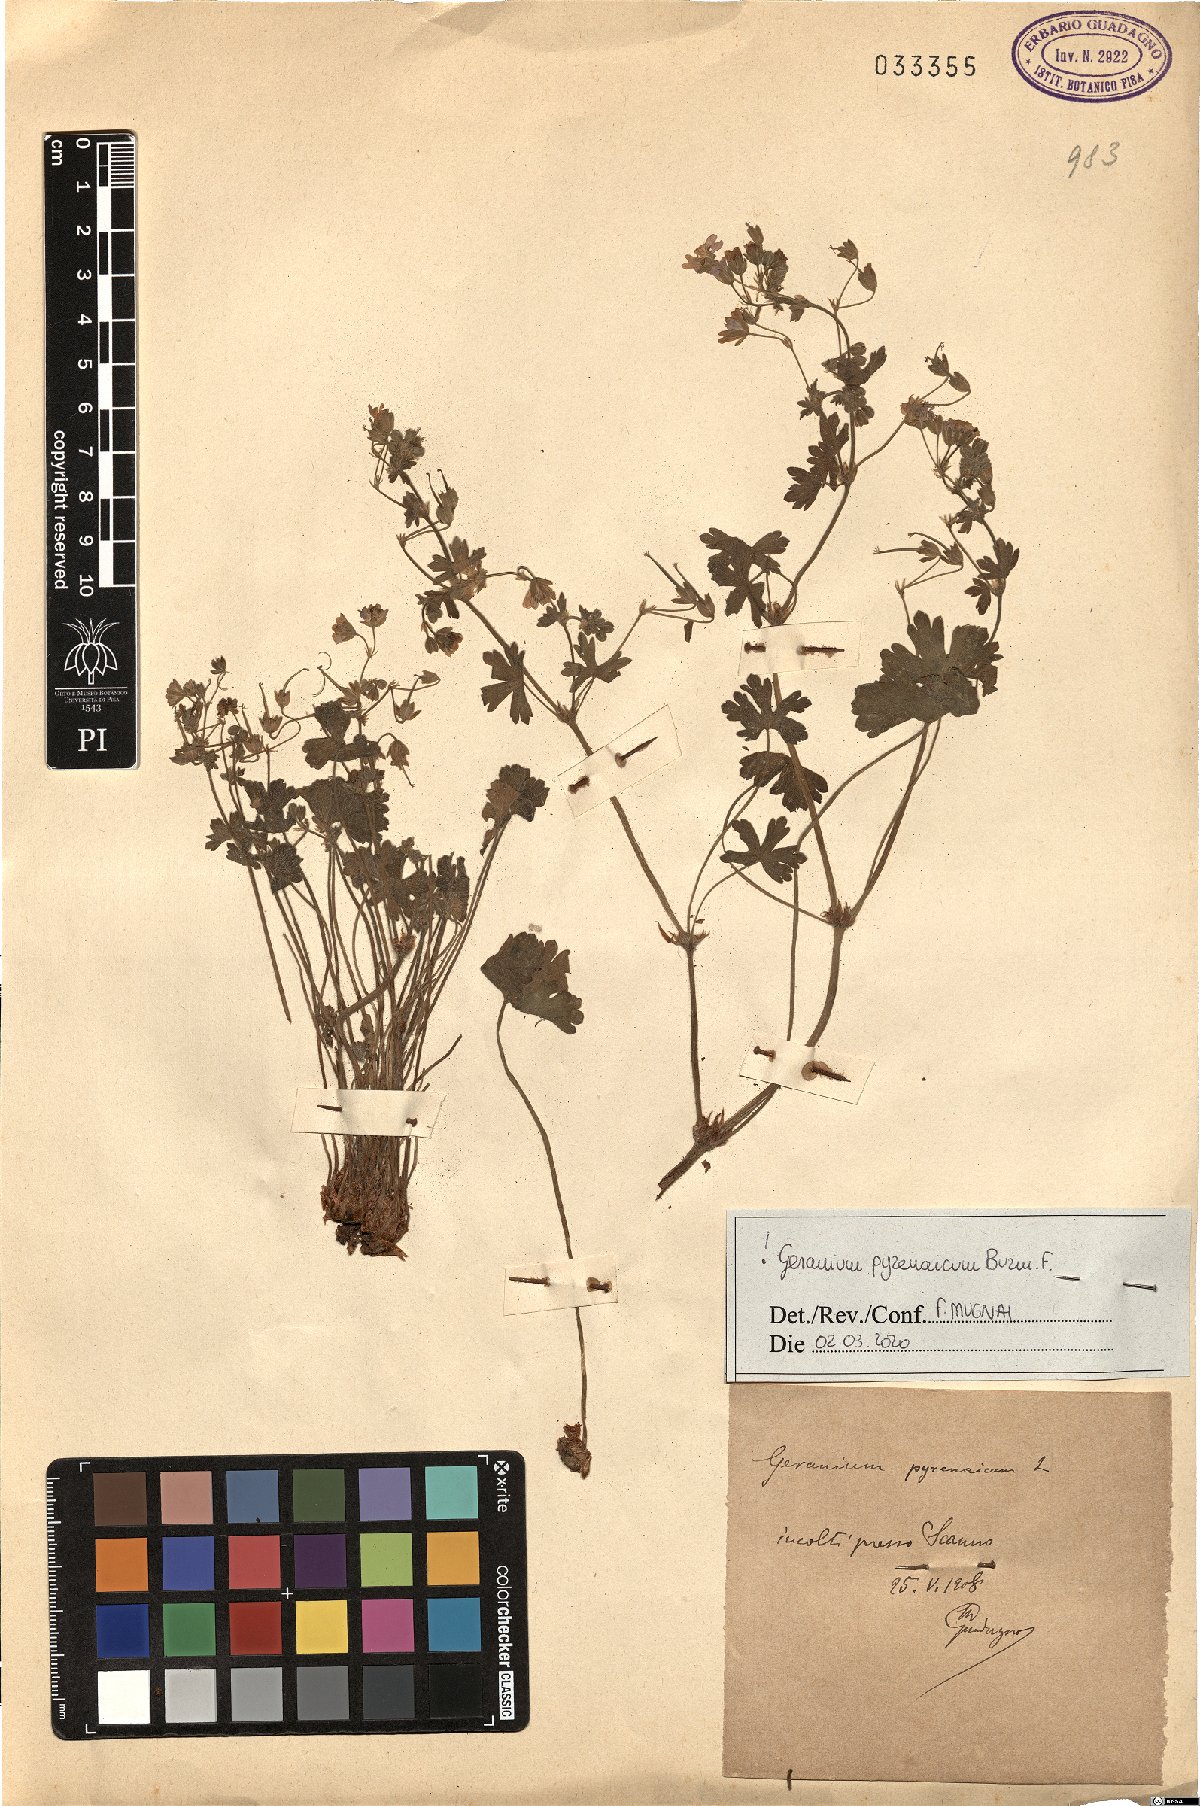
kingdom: Plantae
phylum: Tracheophyta
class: Magnoliopsida
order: Geraniales
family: Geraniaceae
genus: Geranium
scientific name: Geranium pyrenaicum
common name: Hedgerow crane's-bill
